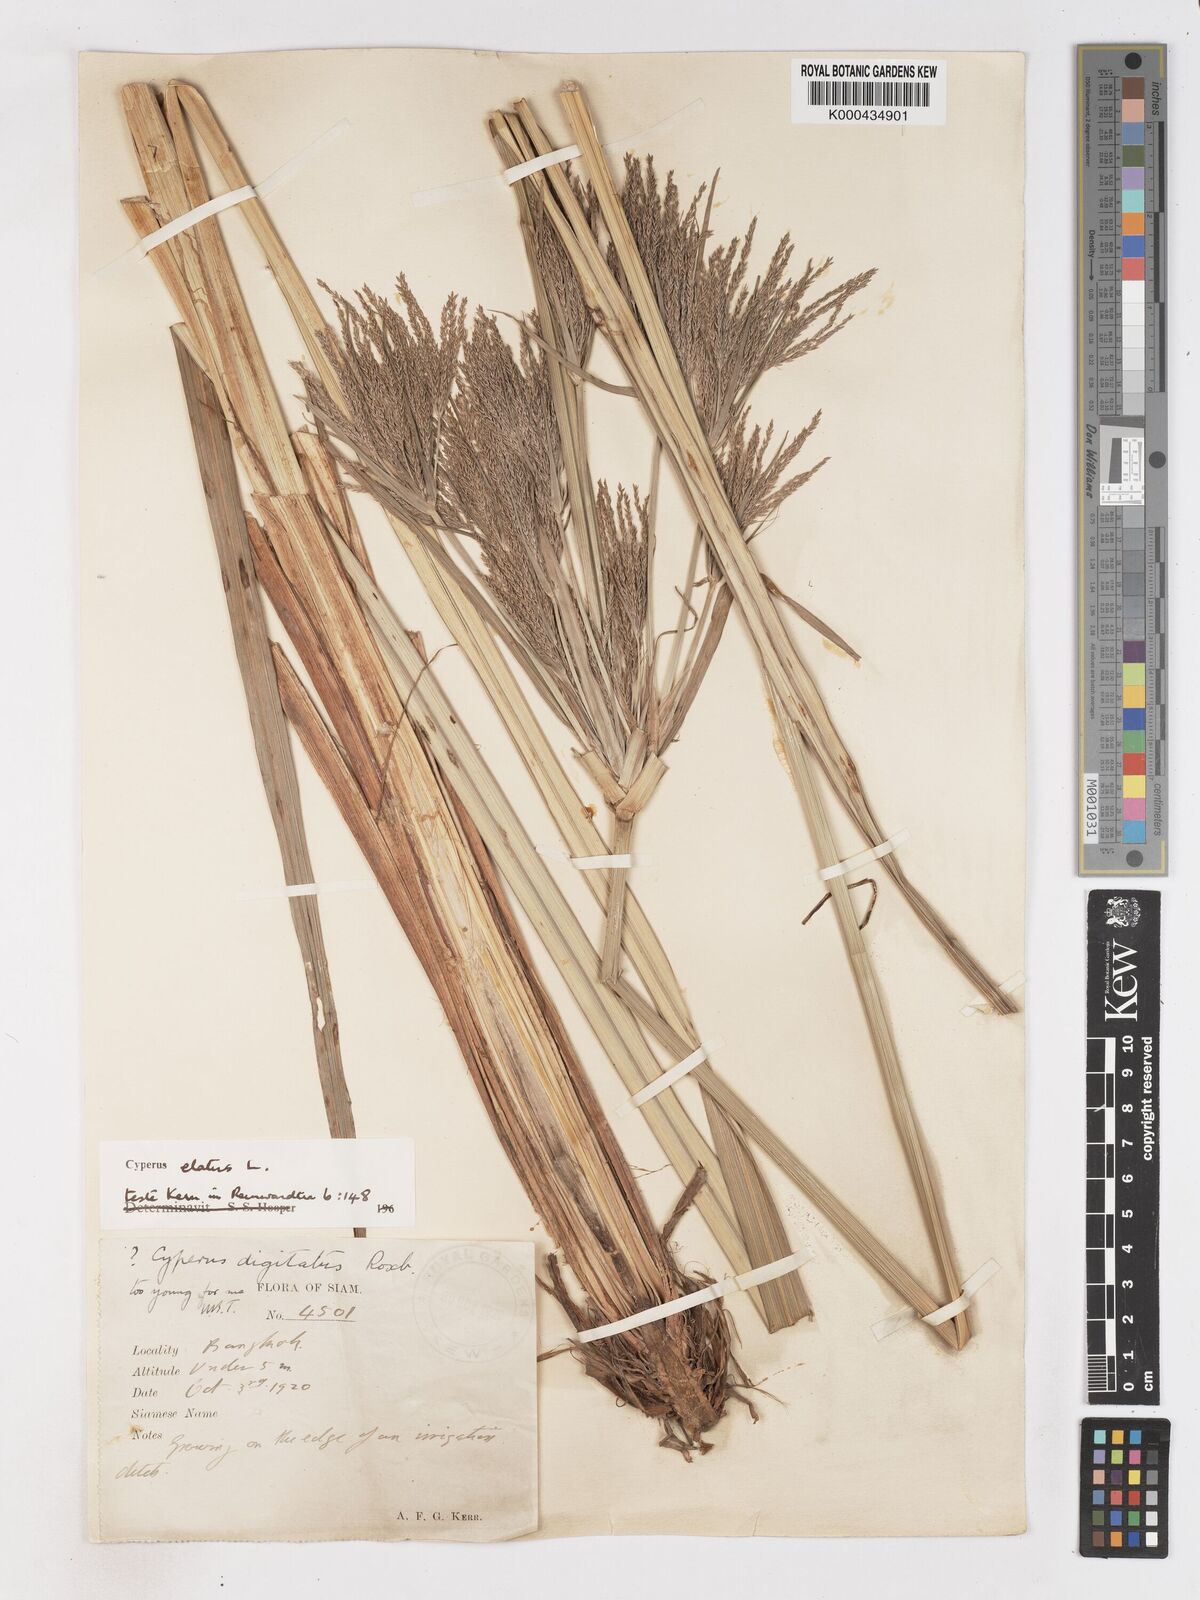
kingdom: Plantae
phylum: Tracheophyta
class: Liliopsida
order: Poales
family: Cyperaceae
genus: Cyperus
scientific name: Cyperus elatus
